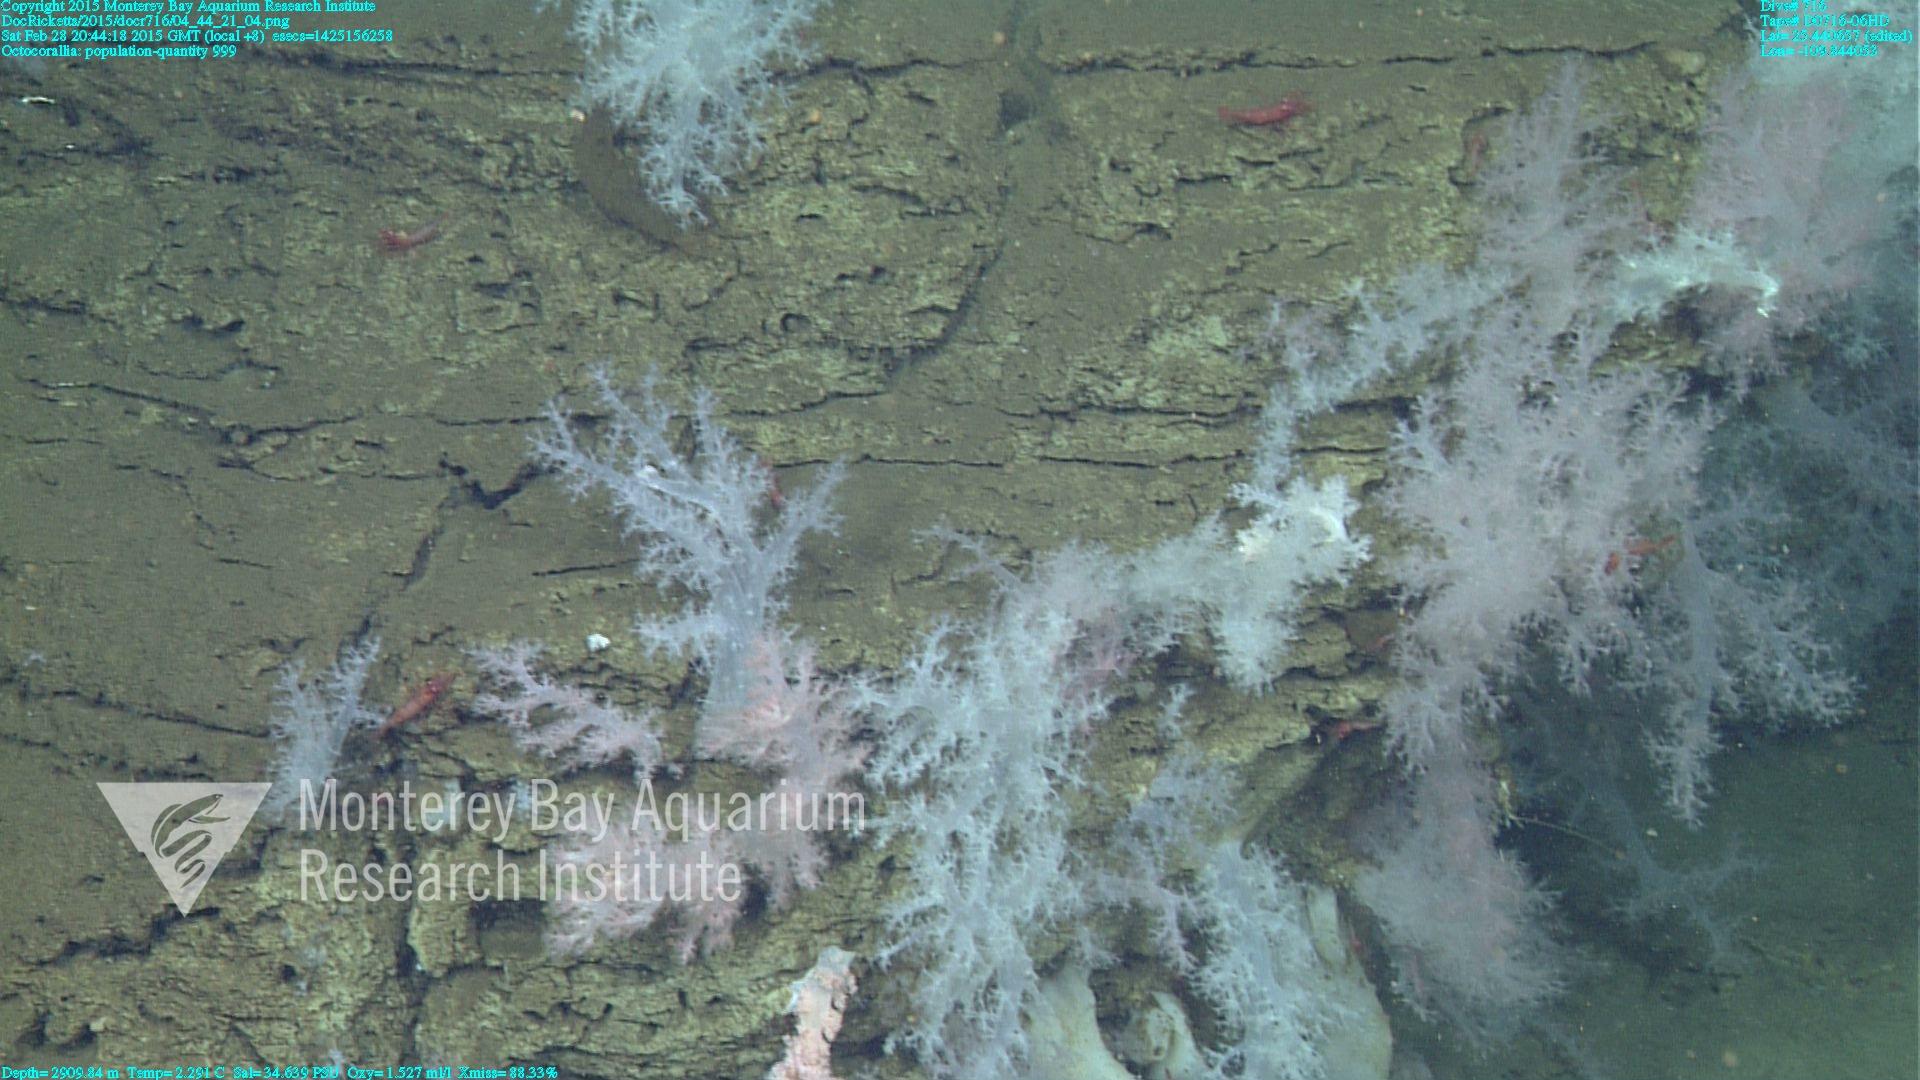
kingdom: Animalia
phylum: Cnidaria
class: Anthozoa
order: Malacalcyonacea
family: Alcyoniidae
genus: Gersemia
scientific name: Gersemia juliepackardae
